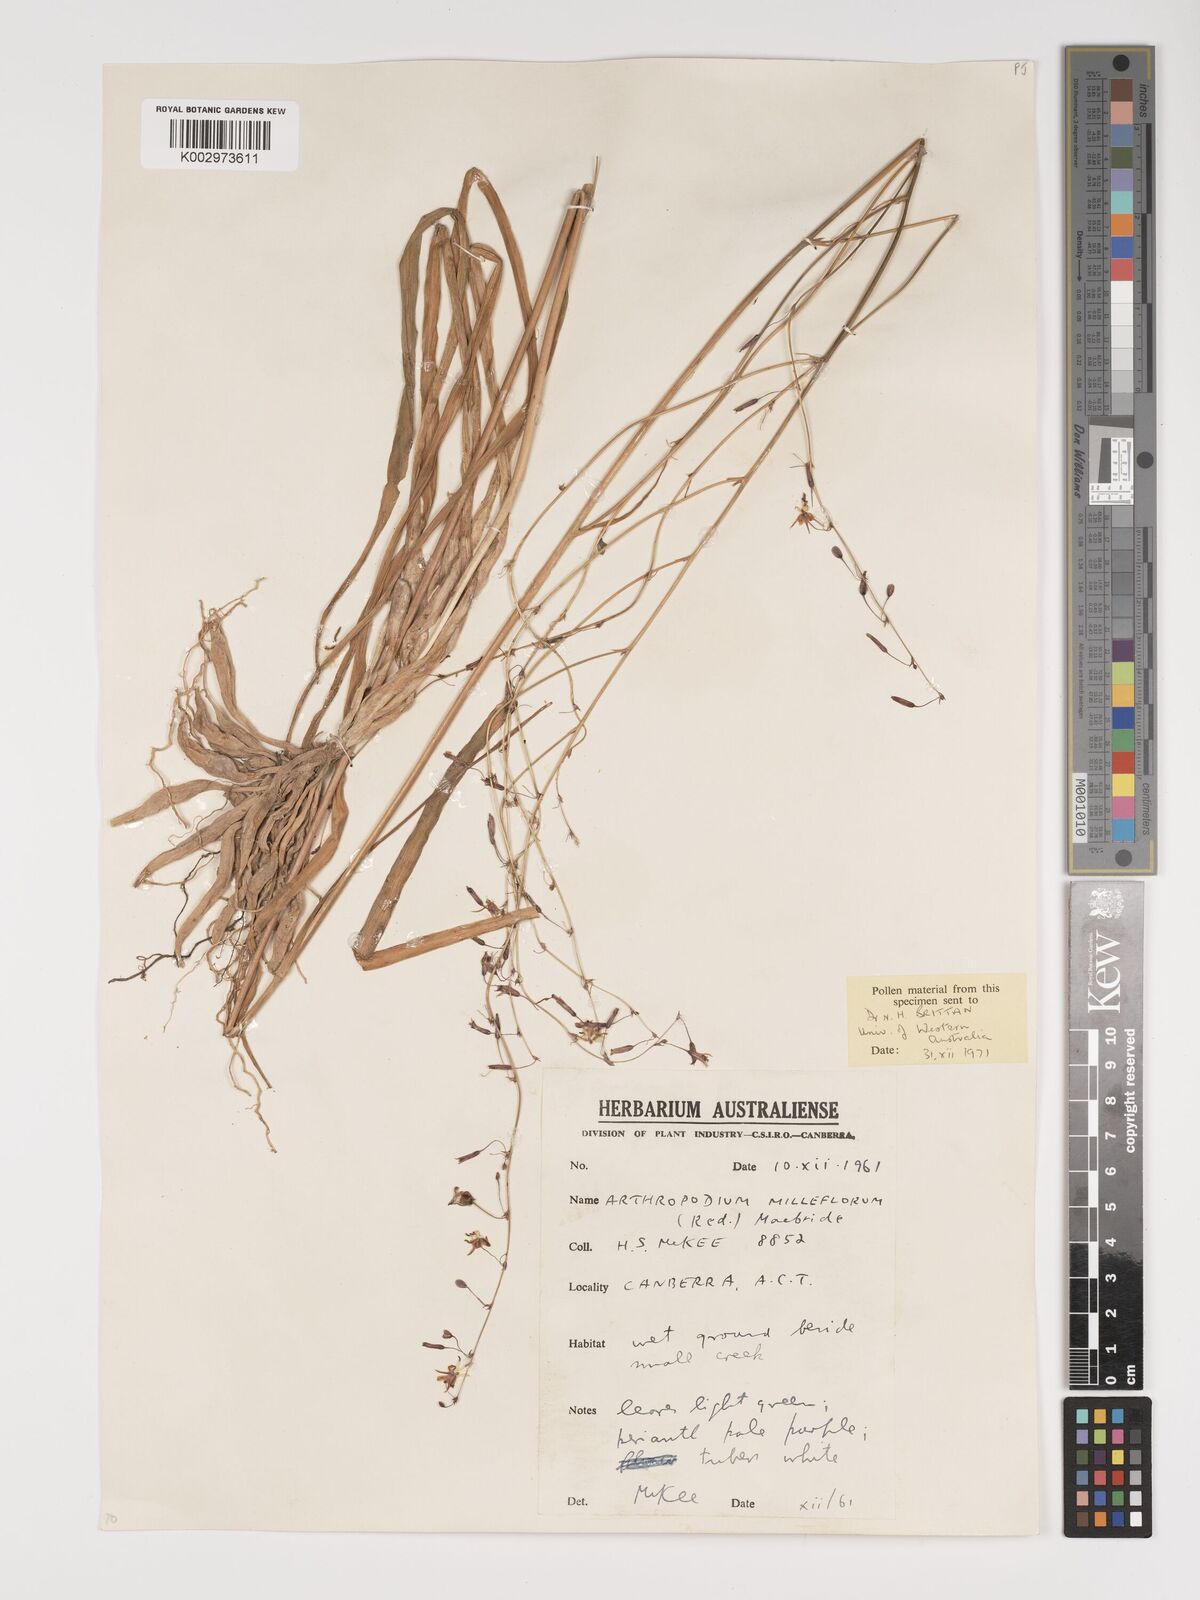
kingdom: Plantae
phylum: Tracheophyta
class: Liliopsida
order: Asparagales
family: Asparagaceae
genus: Arthropodium
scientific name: Arthropodium milleflorum
